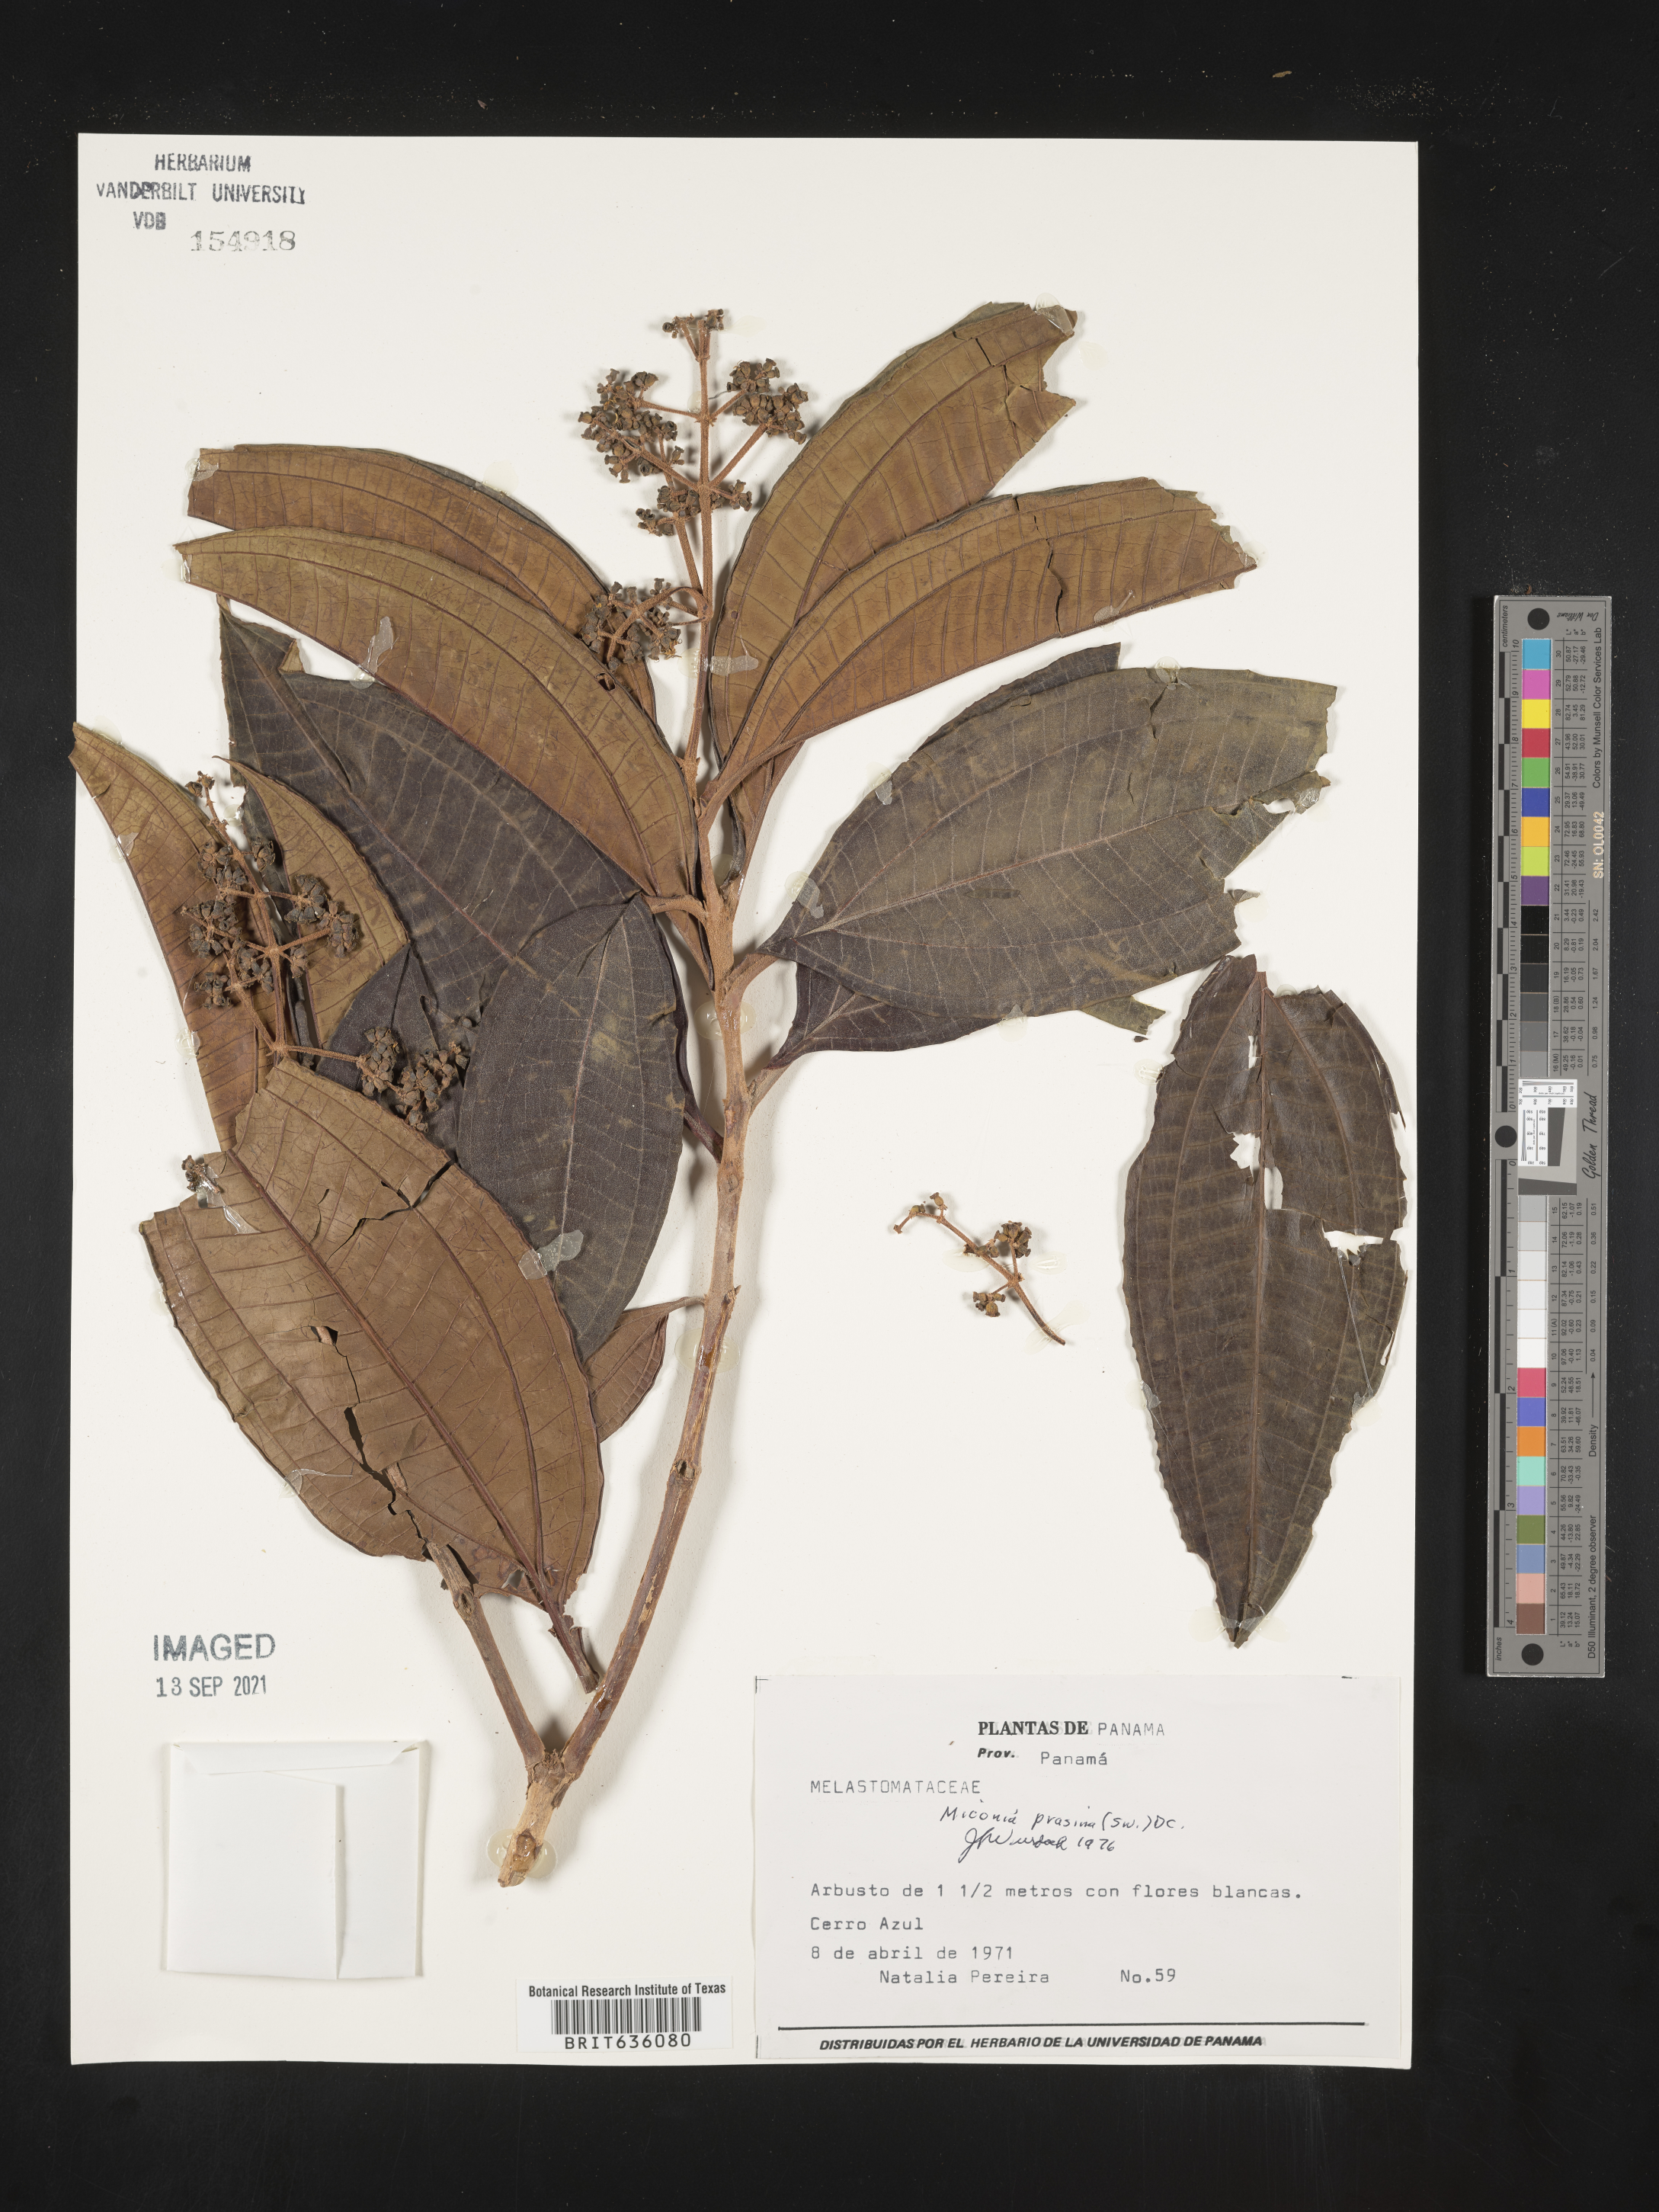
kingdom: Plantae
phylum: Tracheophyta
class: Magnoliopsida
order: Myrtales
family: Melastomataceae
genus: Miconia
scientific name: Miconia
